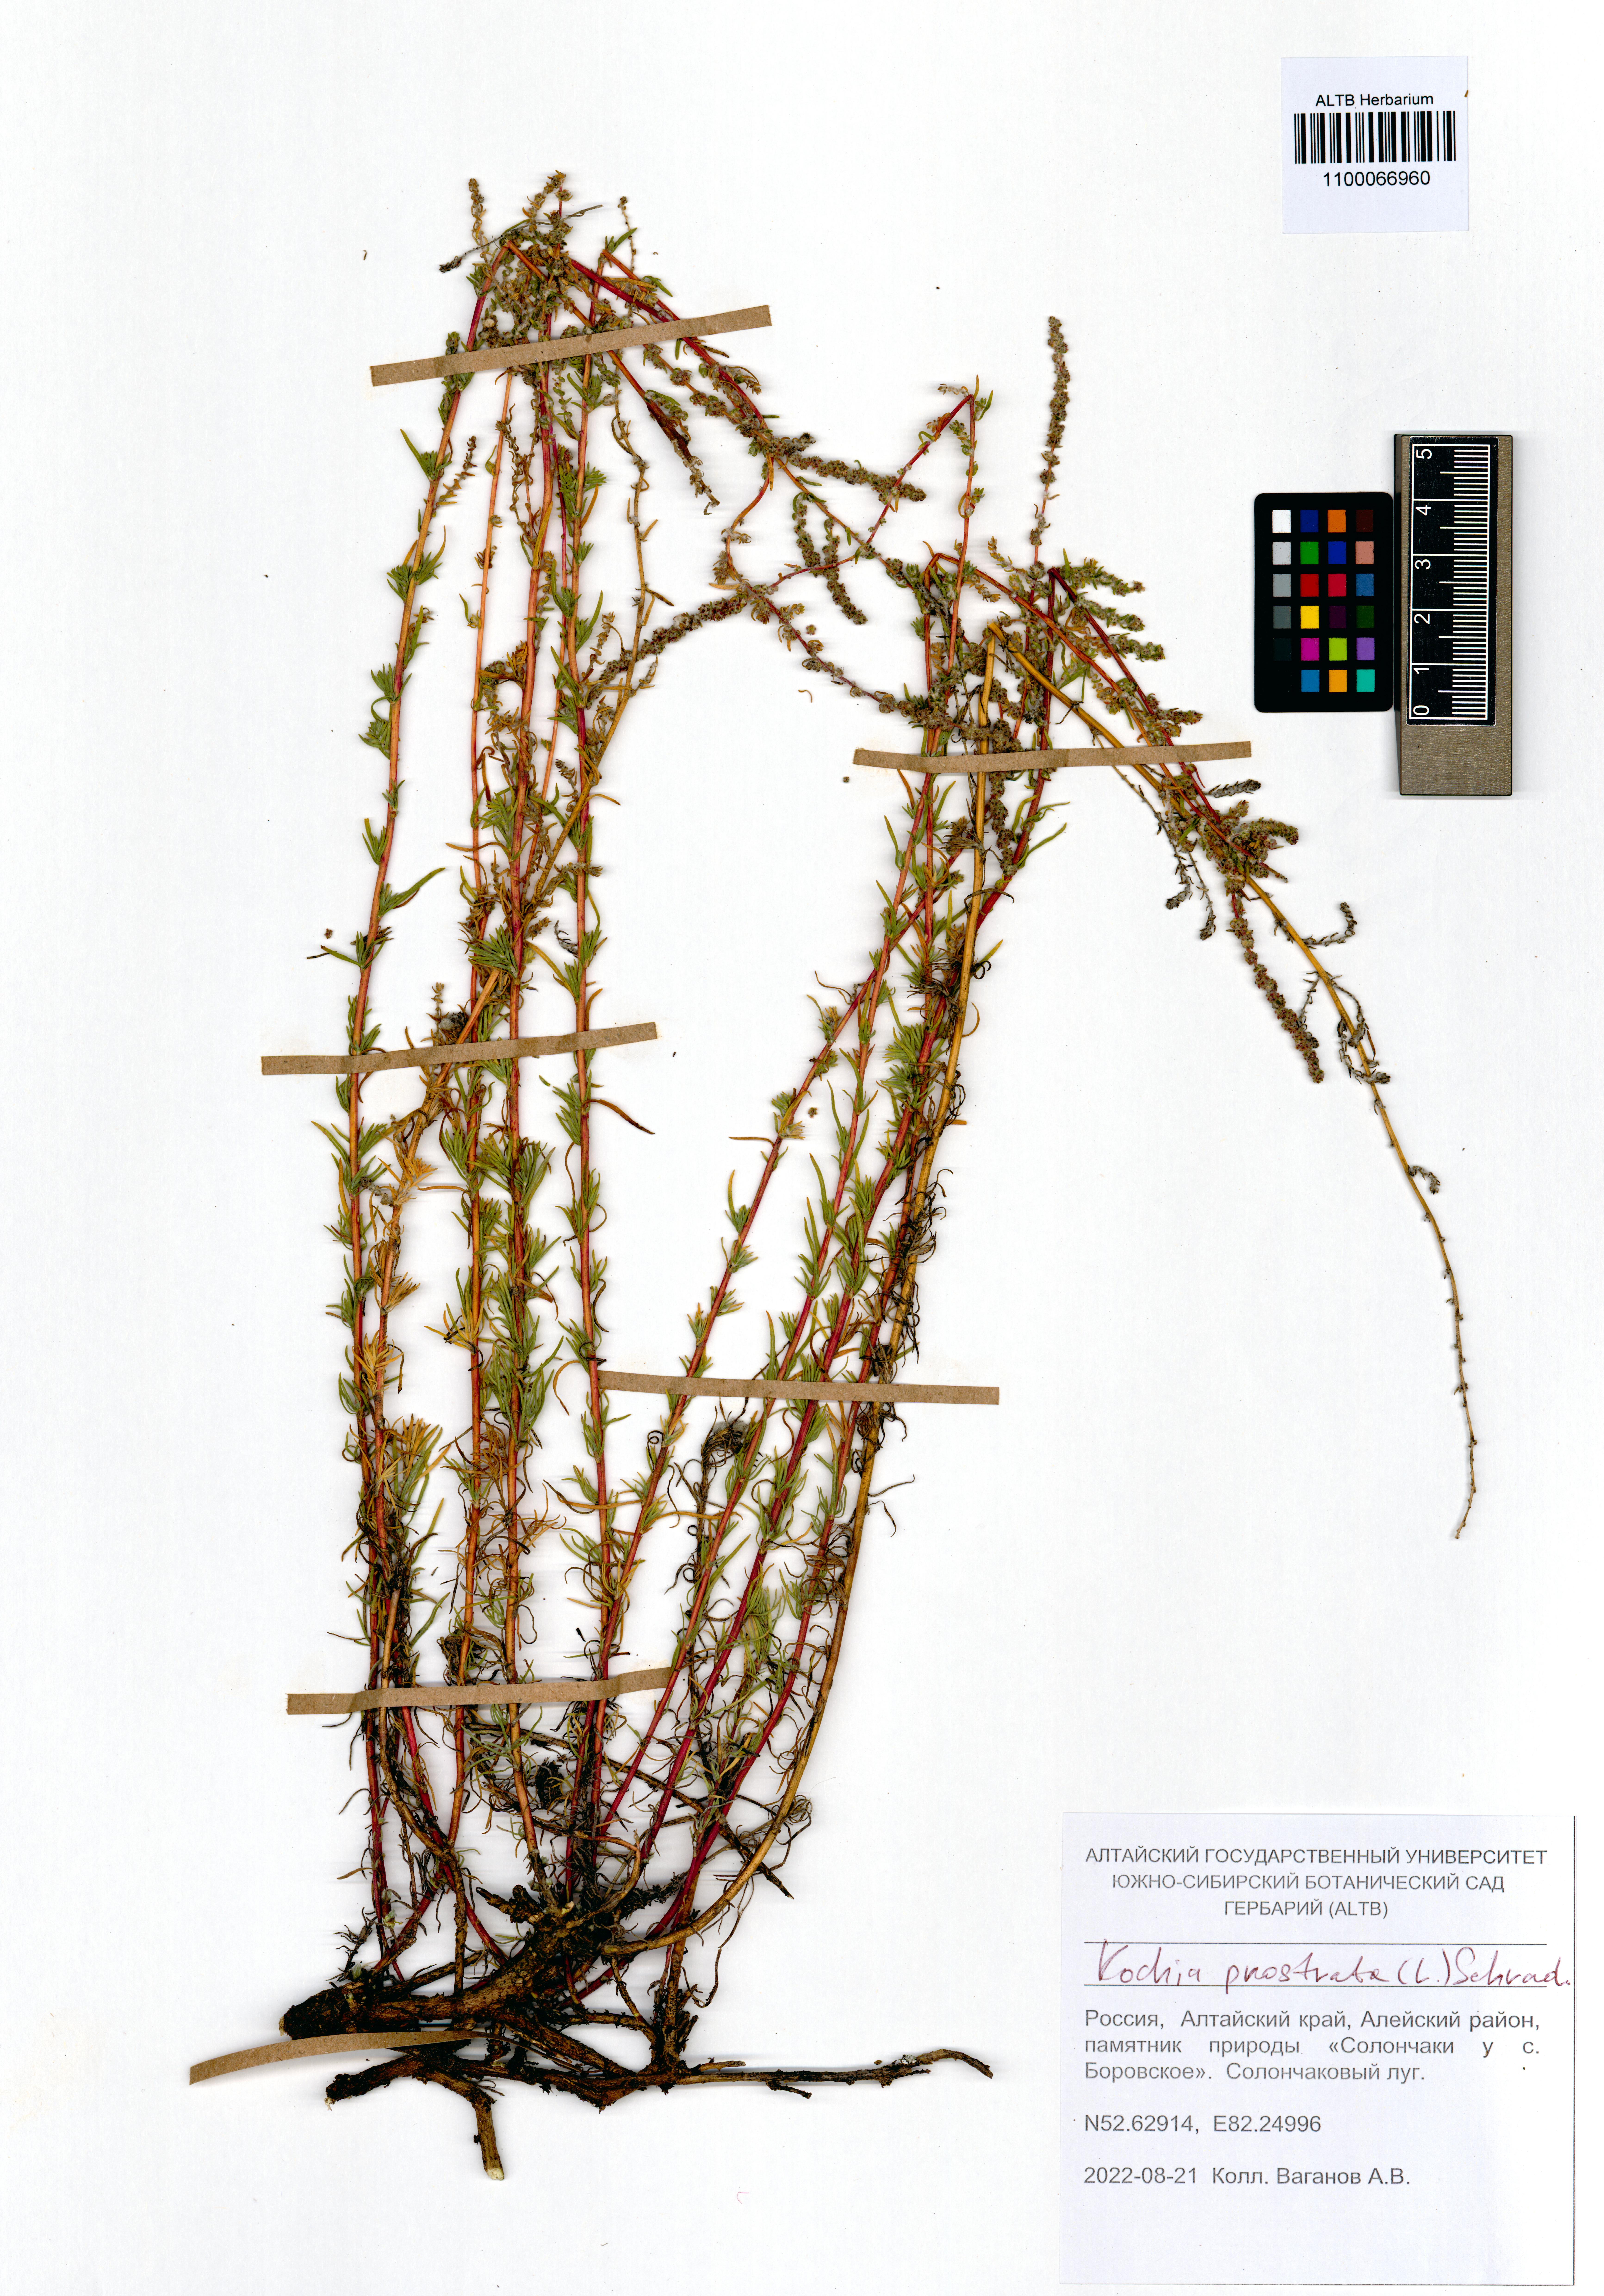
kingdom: Plantae
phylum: Tracheophyta
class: Magnoliopsida
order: Caryophyllales
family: Amaranthaceae
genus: Bassia
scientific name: Bassia prostrata
